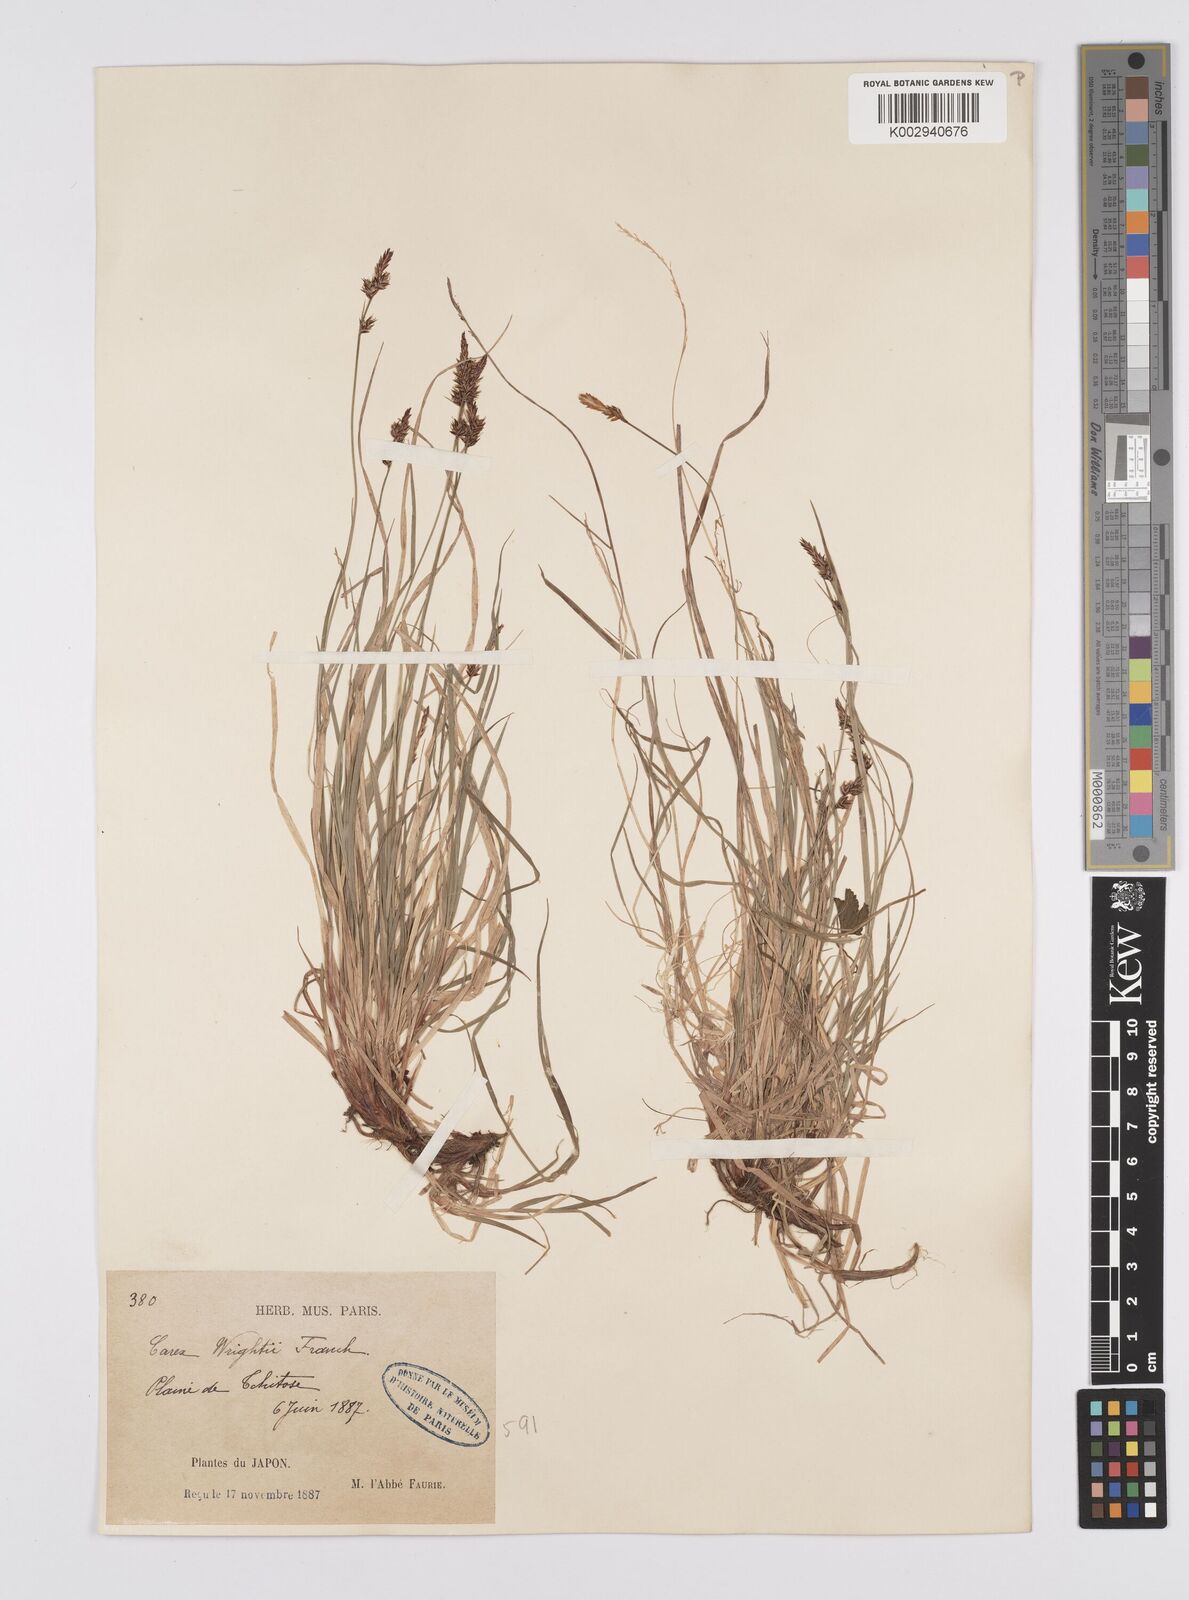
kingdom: Plantae
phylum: Tracheophyta
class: Liliopsida
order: Poales
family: Cyperaceae
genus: Carex
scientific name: Carex oxyandra
